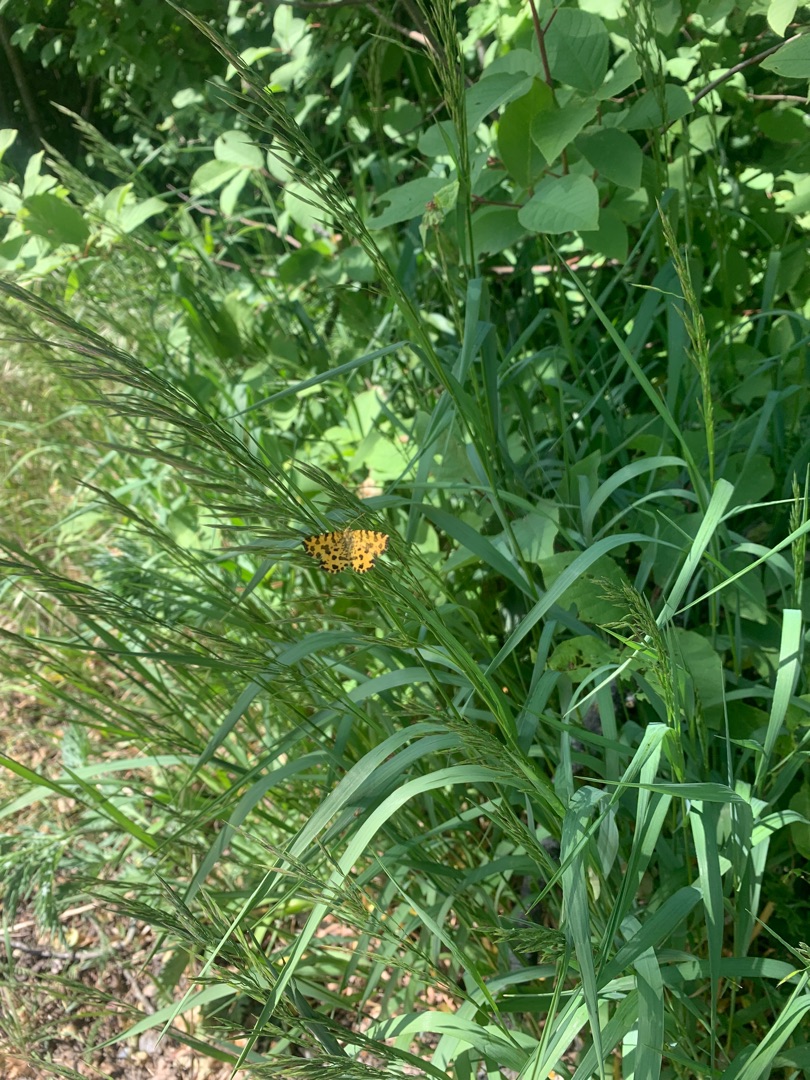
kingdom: Animalia
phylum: Arthropoda
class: Insecta
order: Lepidoptera
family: Geometridae
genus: Pseudopanthera
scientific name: Pseudopanthera macularia
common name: Leopardmåler
